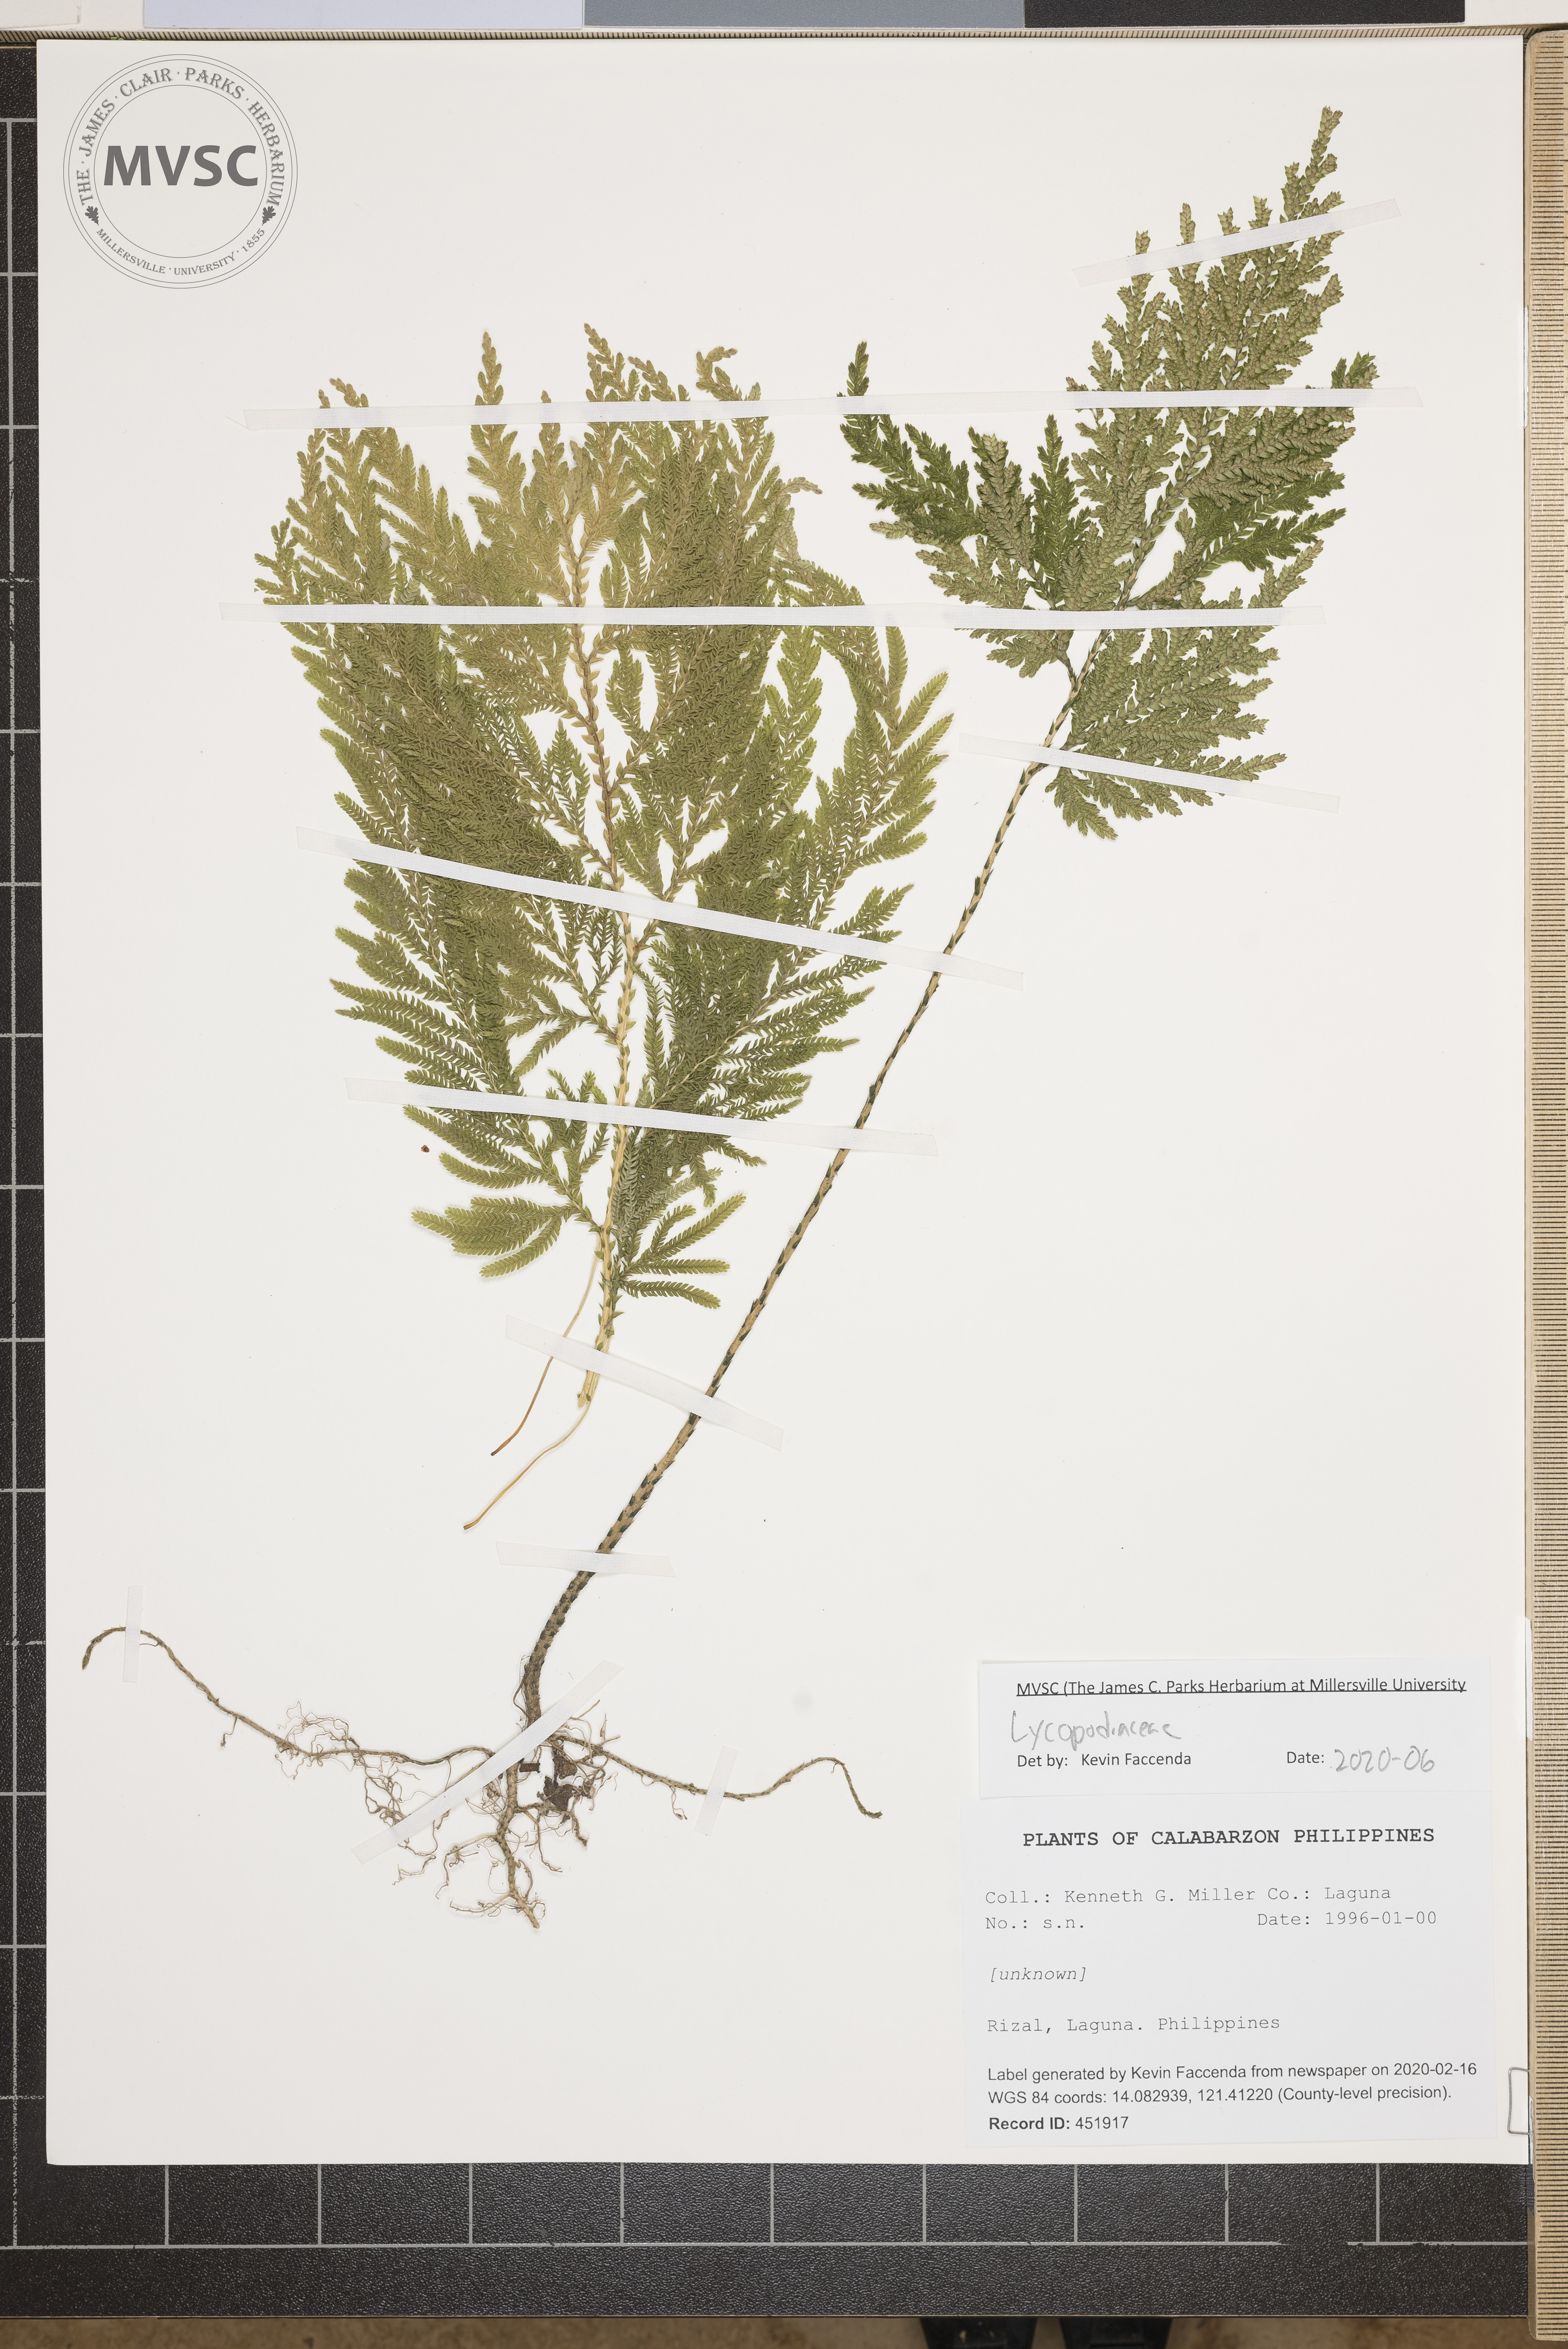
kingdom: Plantae
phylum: Tracheophyta
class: Lycopodiopsida
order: Lycopodiales
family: Lycopodiaceae
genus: Pseudodiphasium
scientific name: Pseudodiphasium volubile
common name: clubmoss
